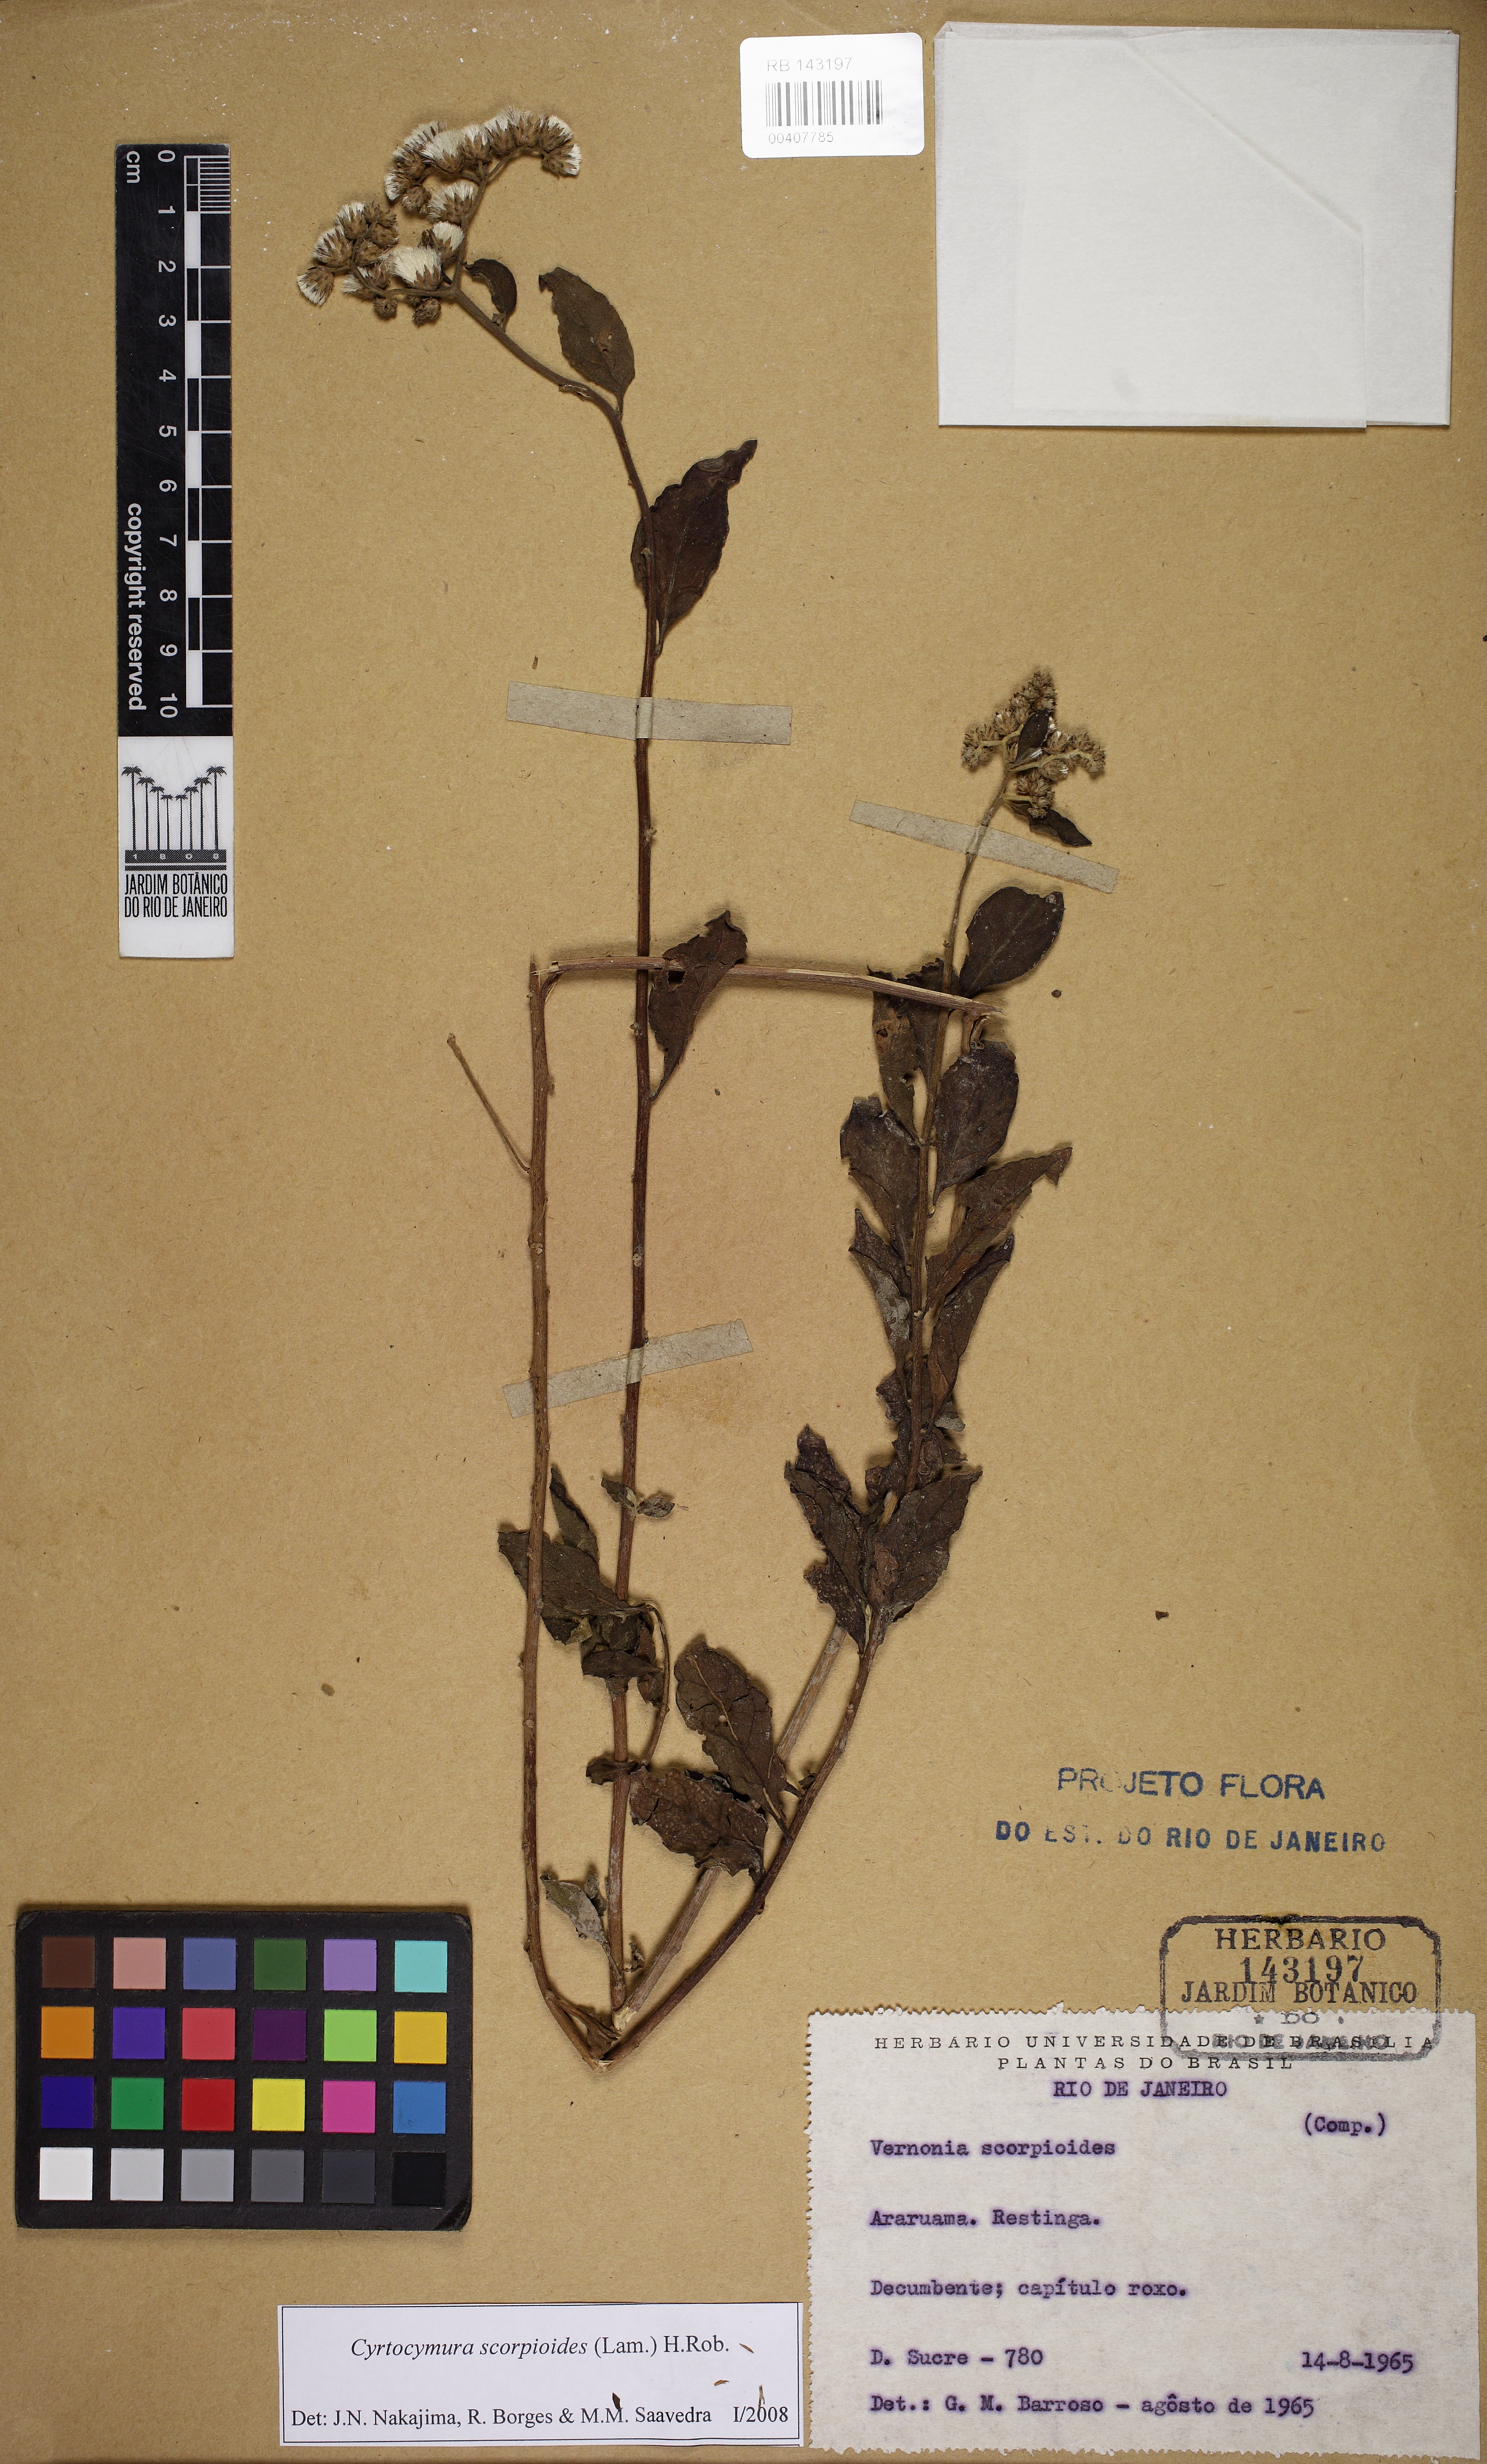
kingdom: Plantae
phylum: Tracheophyta
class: Magnoliopsida
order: Asterales
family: Asteraceae
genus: Cyrtocymura
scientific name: Cyrtocymura scorpioides
